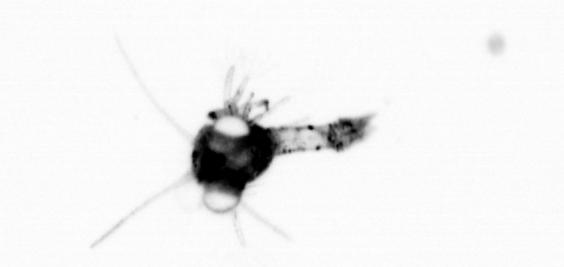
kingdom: Animalia
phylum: Arthropoda
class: Copepoda
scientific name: Copepoda
